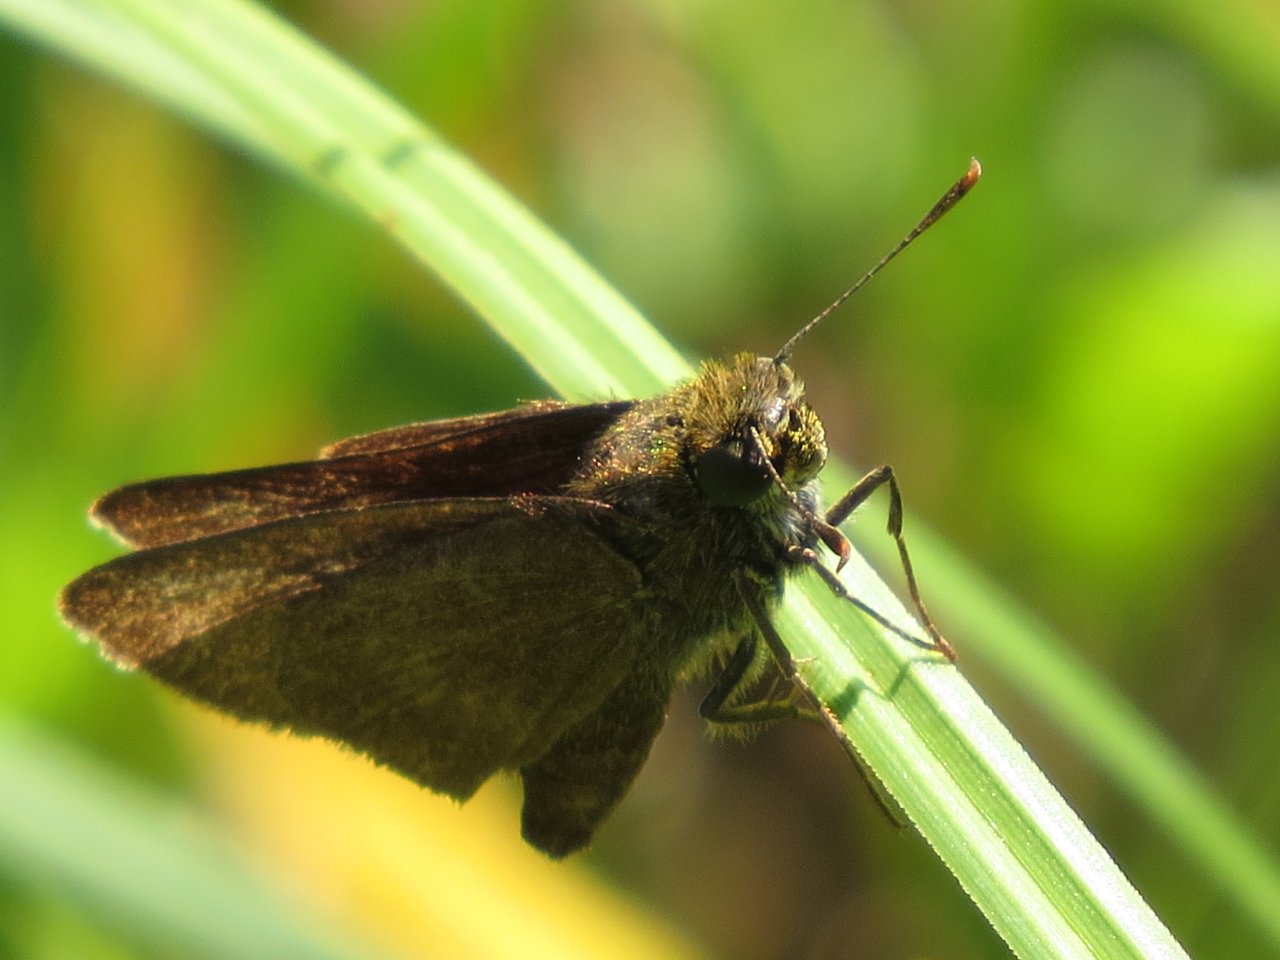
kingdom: Animalia
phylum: Arthropoda
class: Insecta
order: Lepidoptera
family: Hesperiidae
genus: Euphyes
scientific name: Euphyes vestris
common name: Dun Skipper
